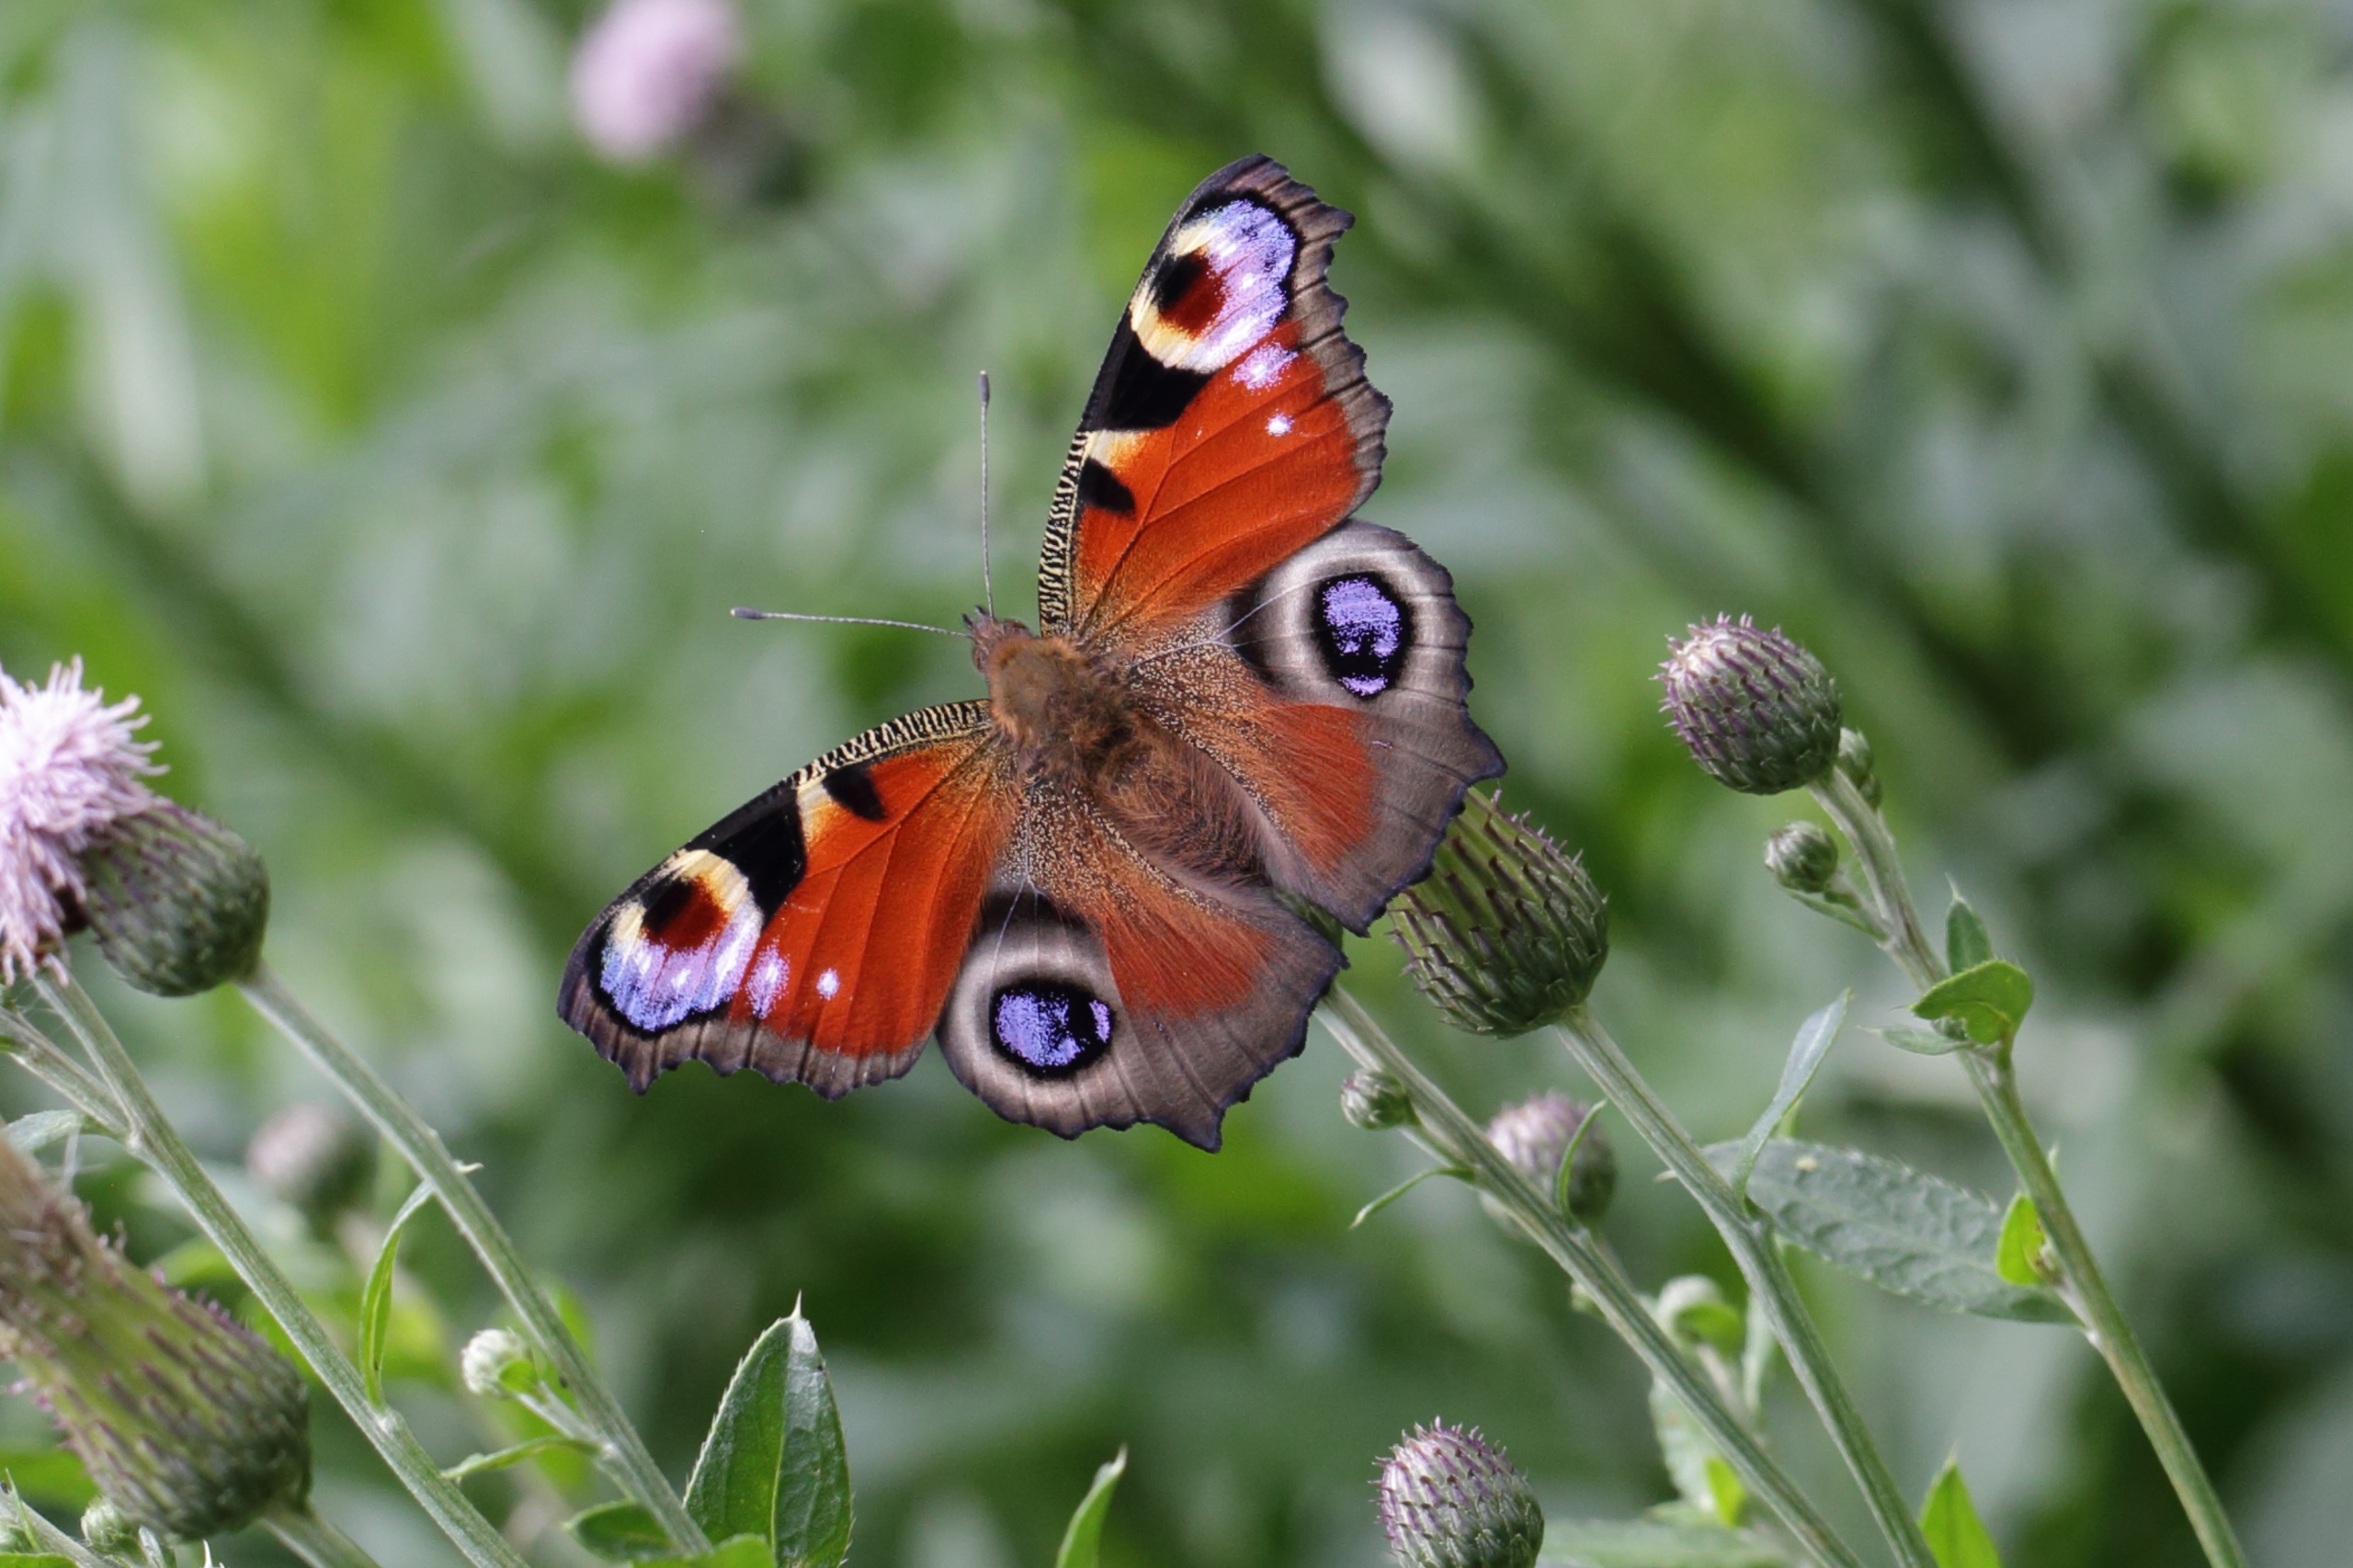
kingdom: Animalia
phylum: Arthropoda
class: Insecta
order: Lepidoptera
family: Nymphalidae
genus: Aglais
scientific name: Aglais io
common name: Dagpåfugleøje
